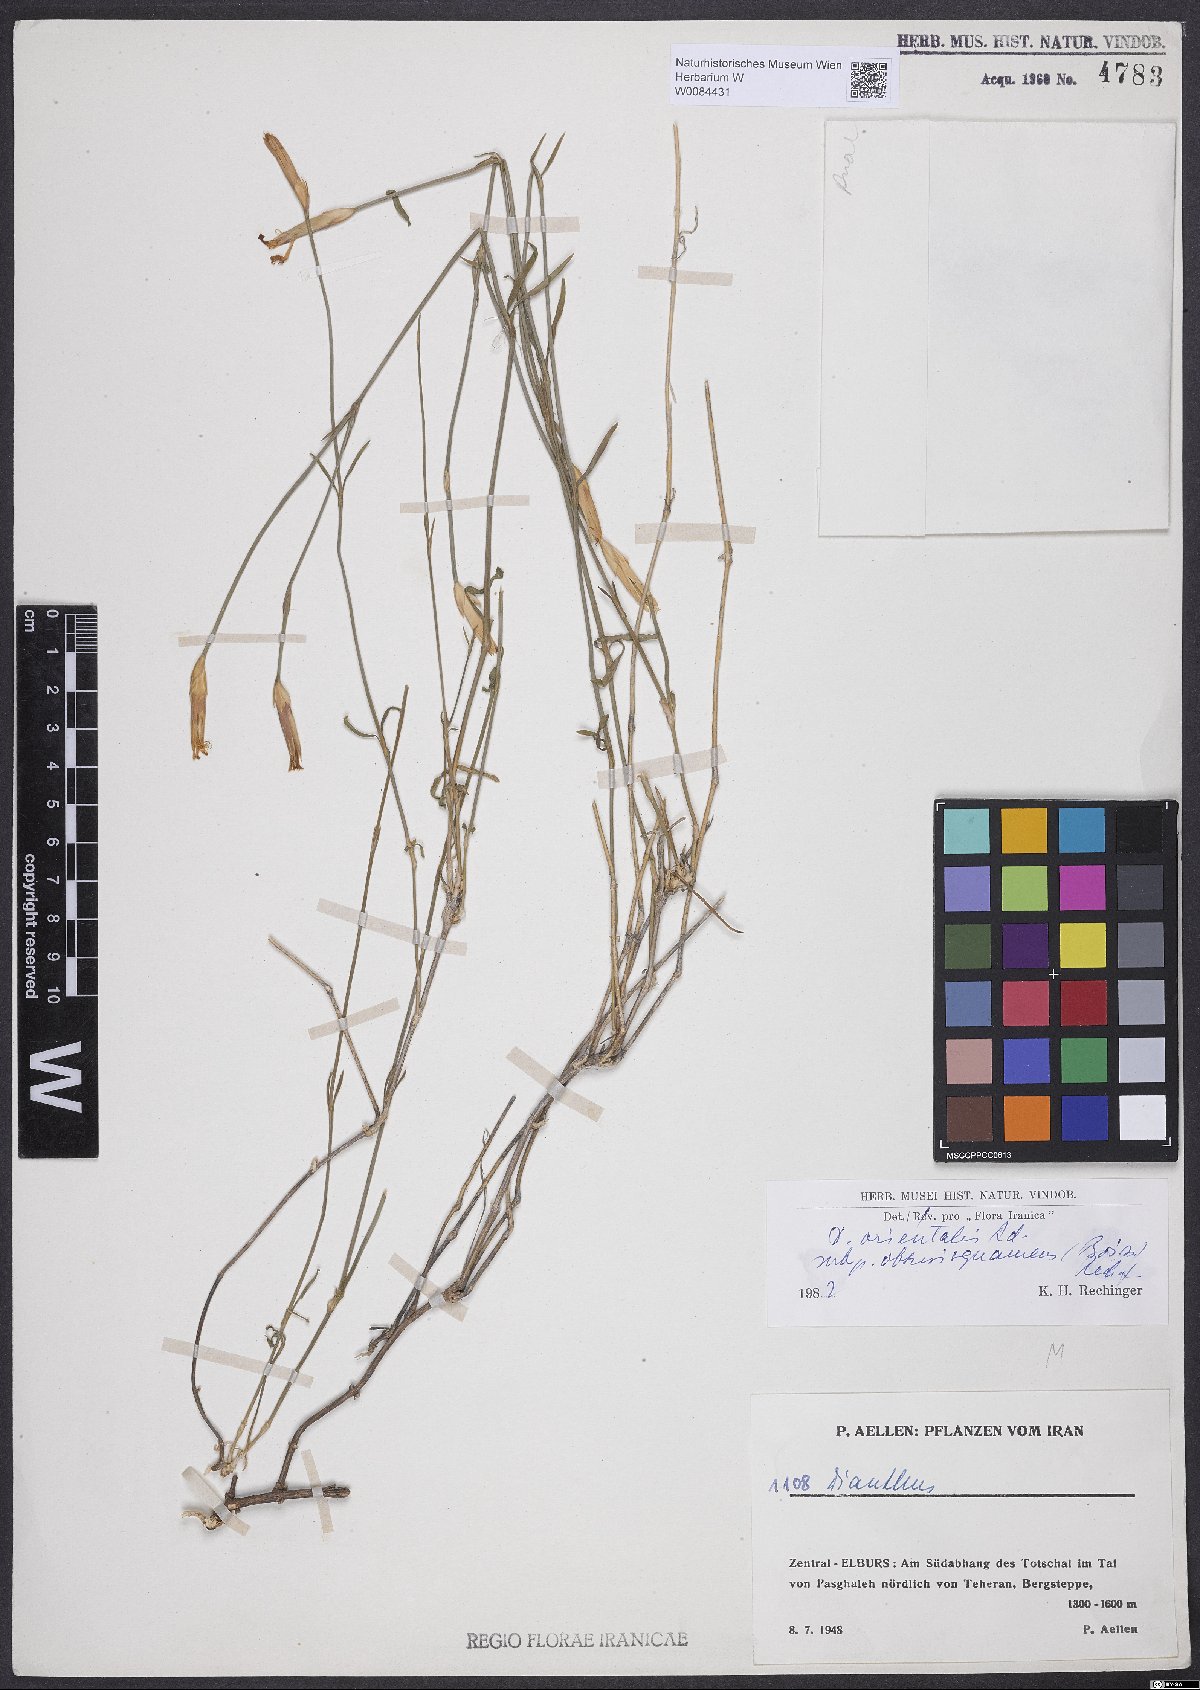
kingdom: Plantae
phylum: Tracheophyta
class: Magnoliopsida
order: Caryophyllales
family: Caryophyllaceae
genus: Dianthus
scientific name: Dianthus orientalis
